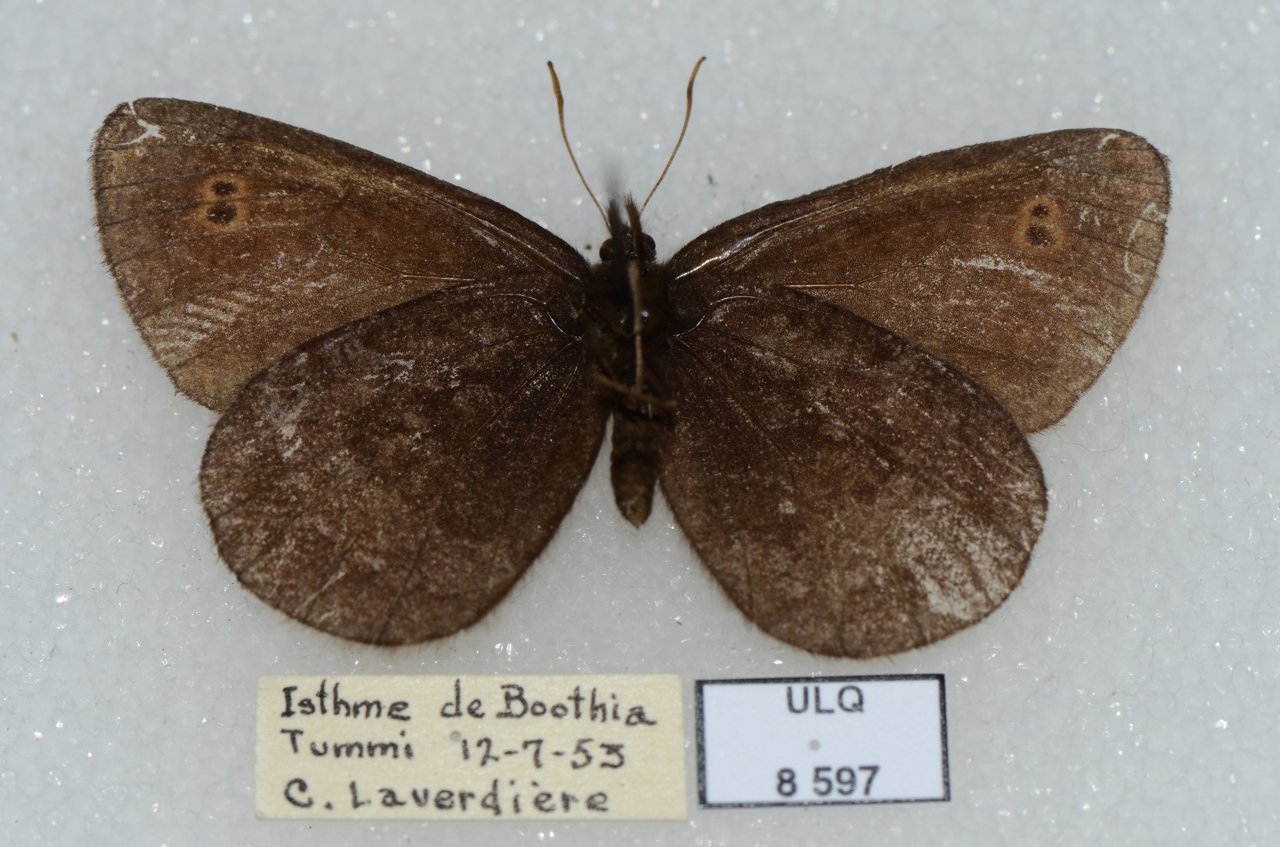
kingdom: Animalia
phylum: Arthropoda
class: Insecta
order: Lepidoptera
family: Nymphalidae
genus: Erebia
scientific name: Erebia rossii
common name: Ross's Alpine
